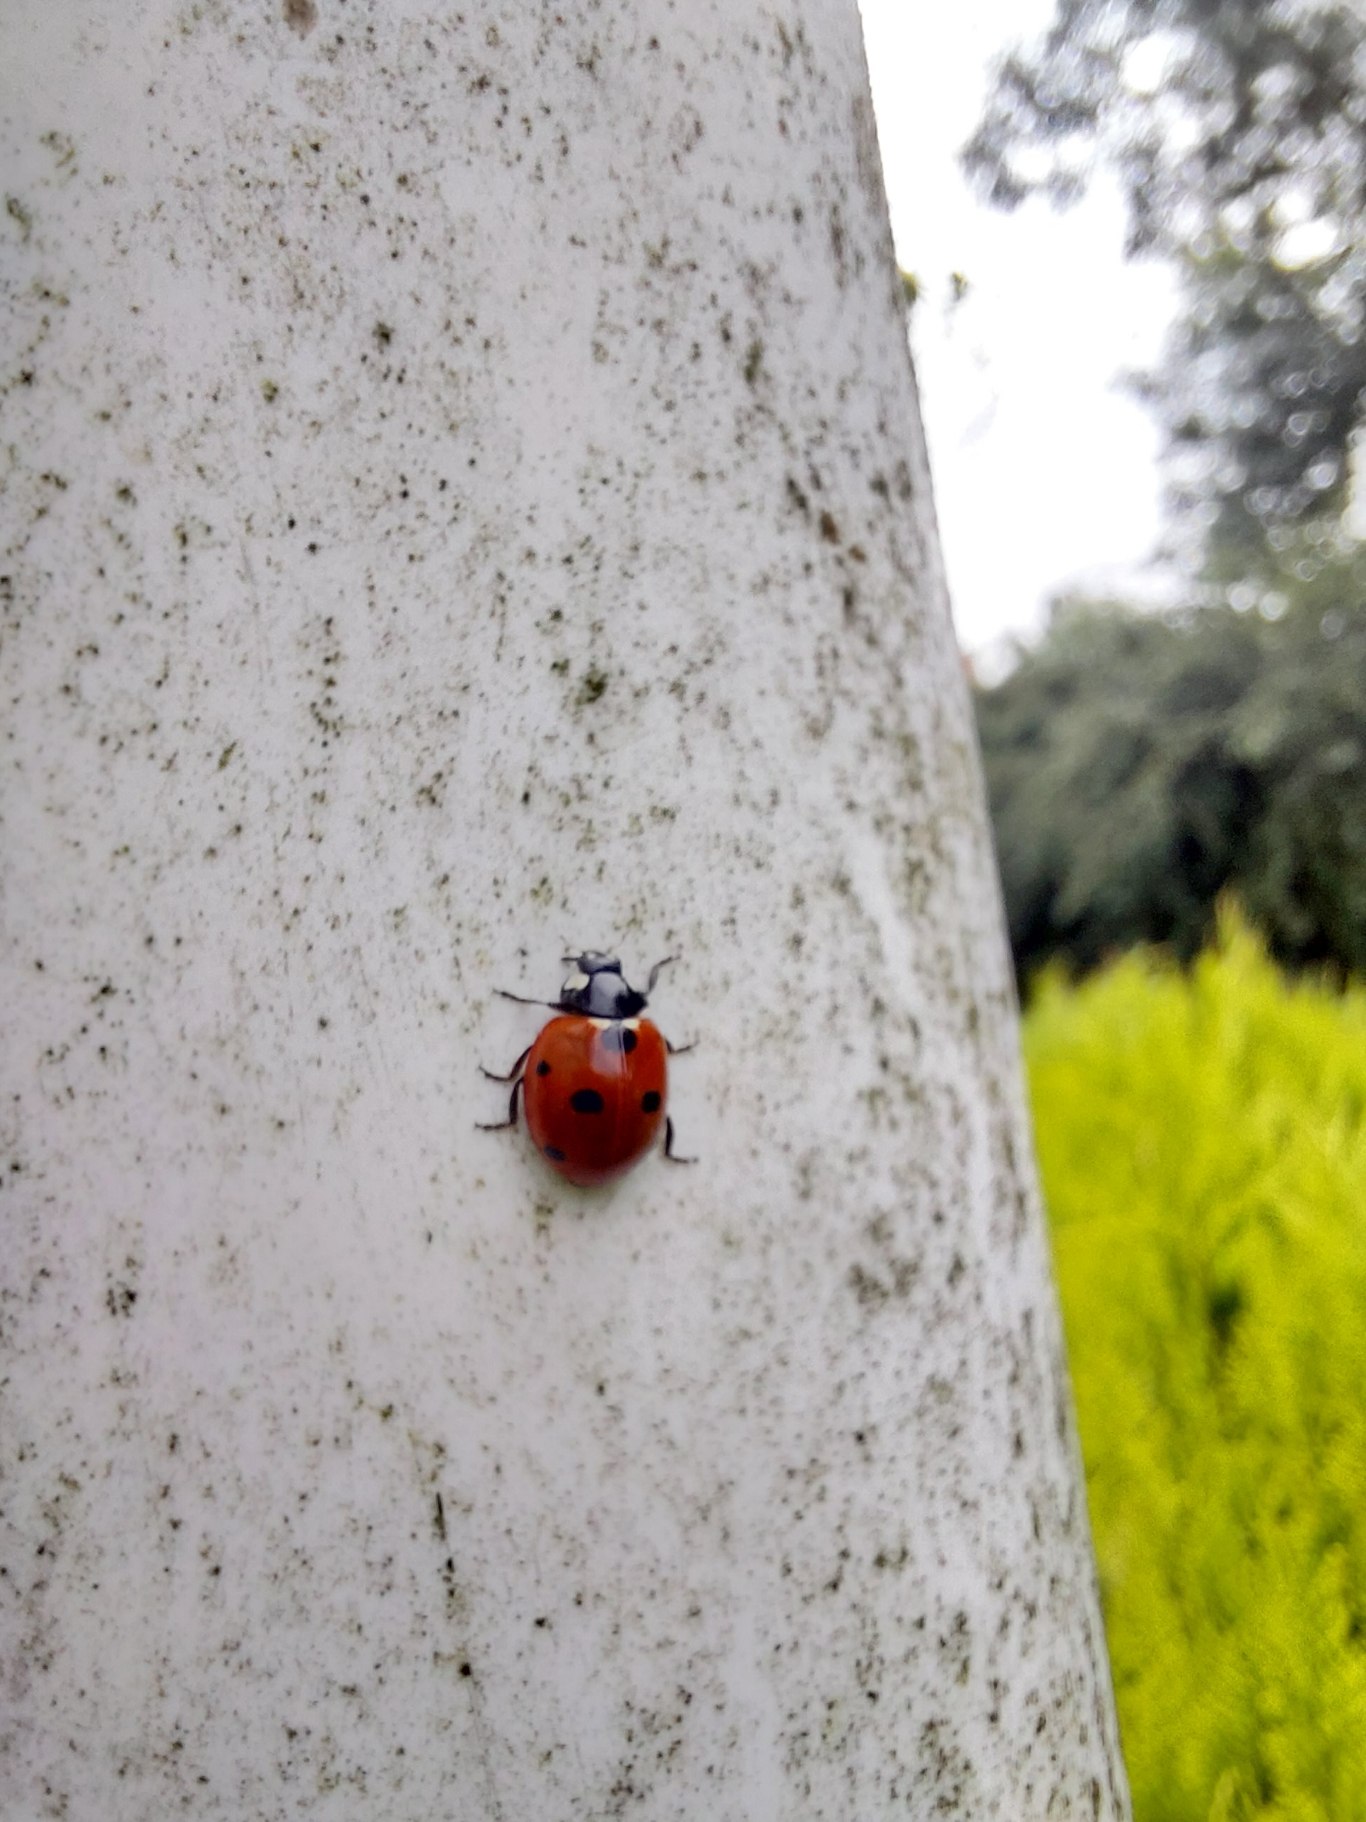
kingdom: Animalia
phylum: Arthropoda
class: Insecta
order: Coleoptera
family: Coccinellidae
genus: Coccinella
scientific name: Coccinella septempunctata
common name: Syvplettet mariehøne
